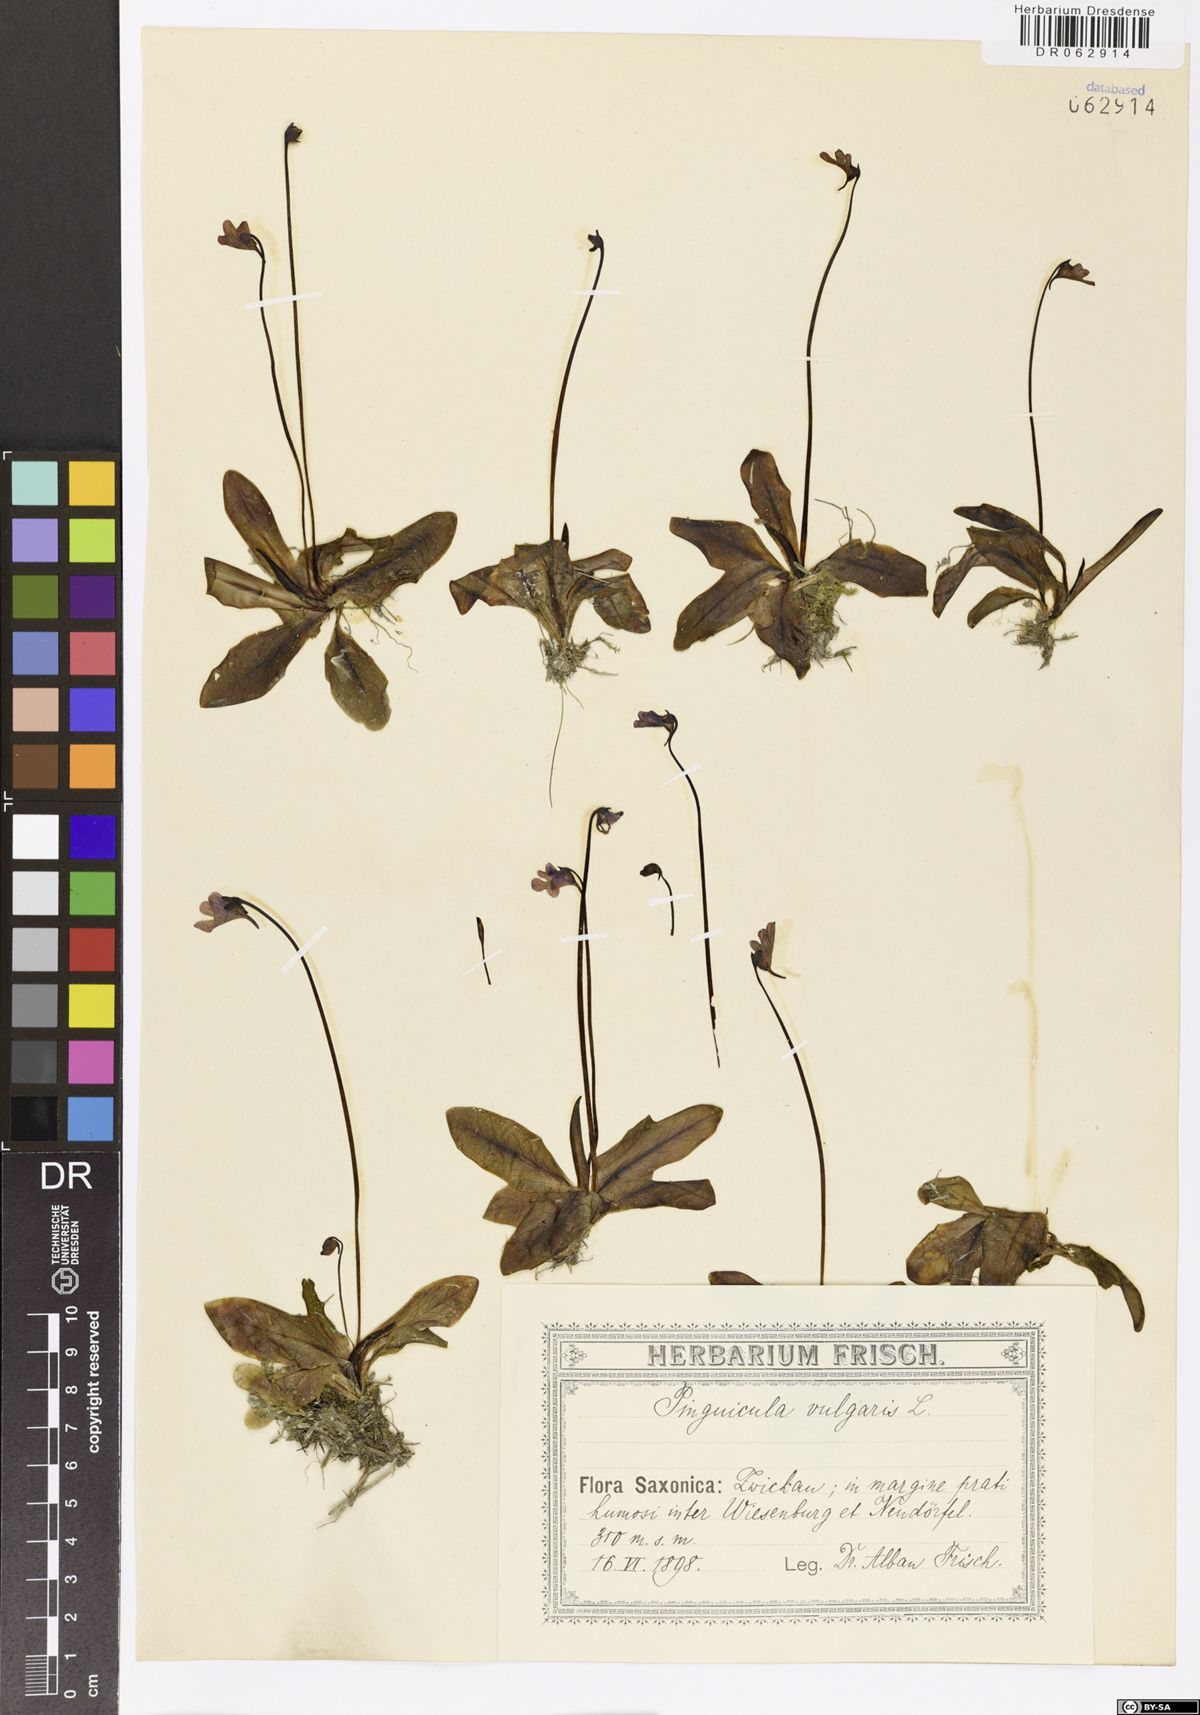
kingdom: Plantae
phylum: Tracheophyta
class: Magnoliopsida
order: Lamiales
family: Lentibulariaceae
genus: Pinguicula
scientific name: Pinguicula vulgaris
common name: Common butterwort
